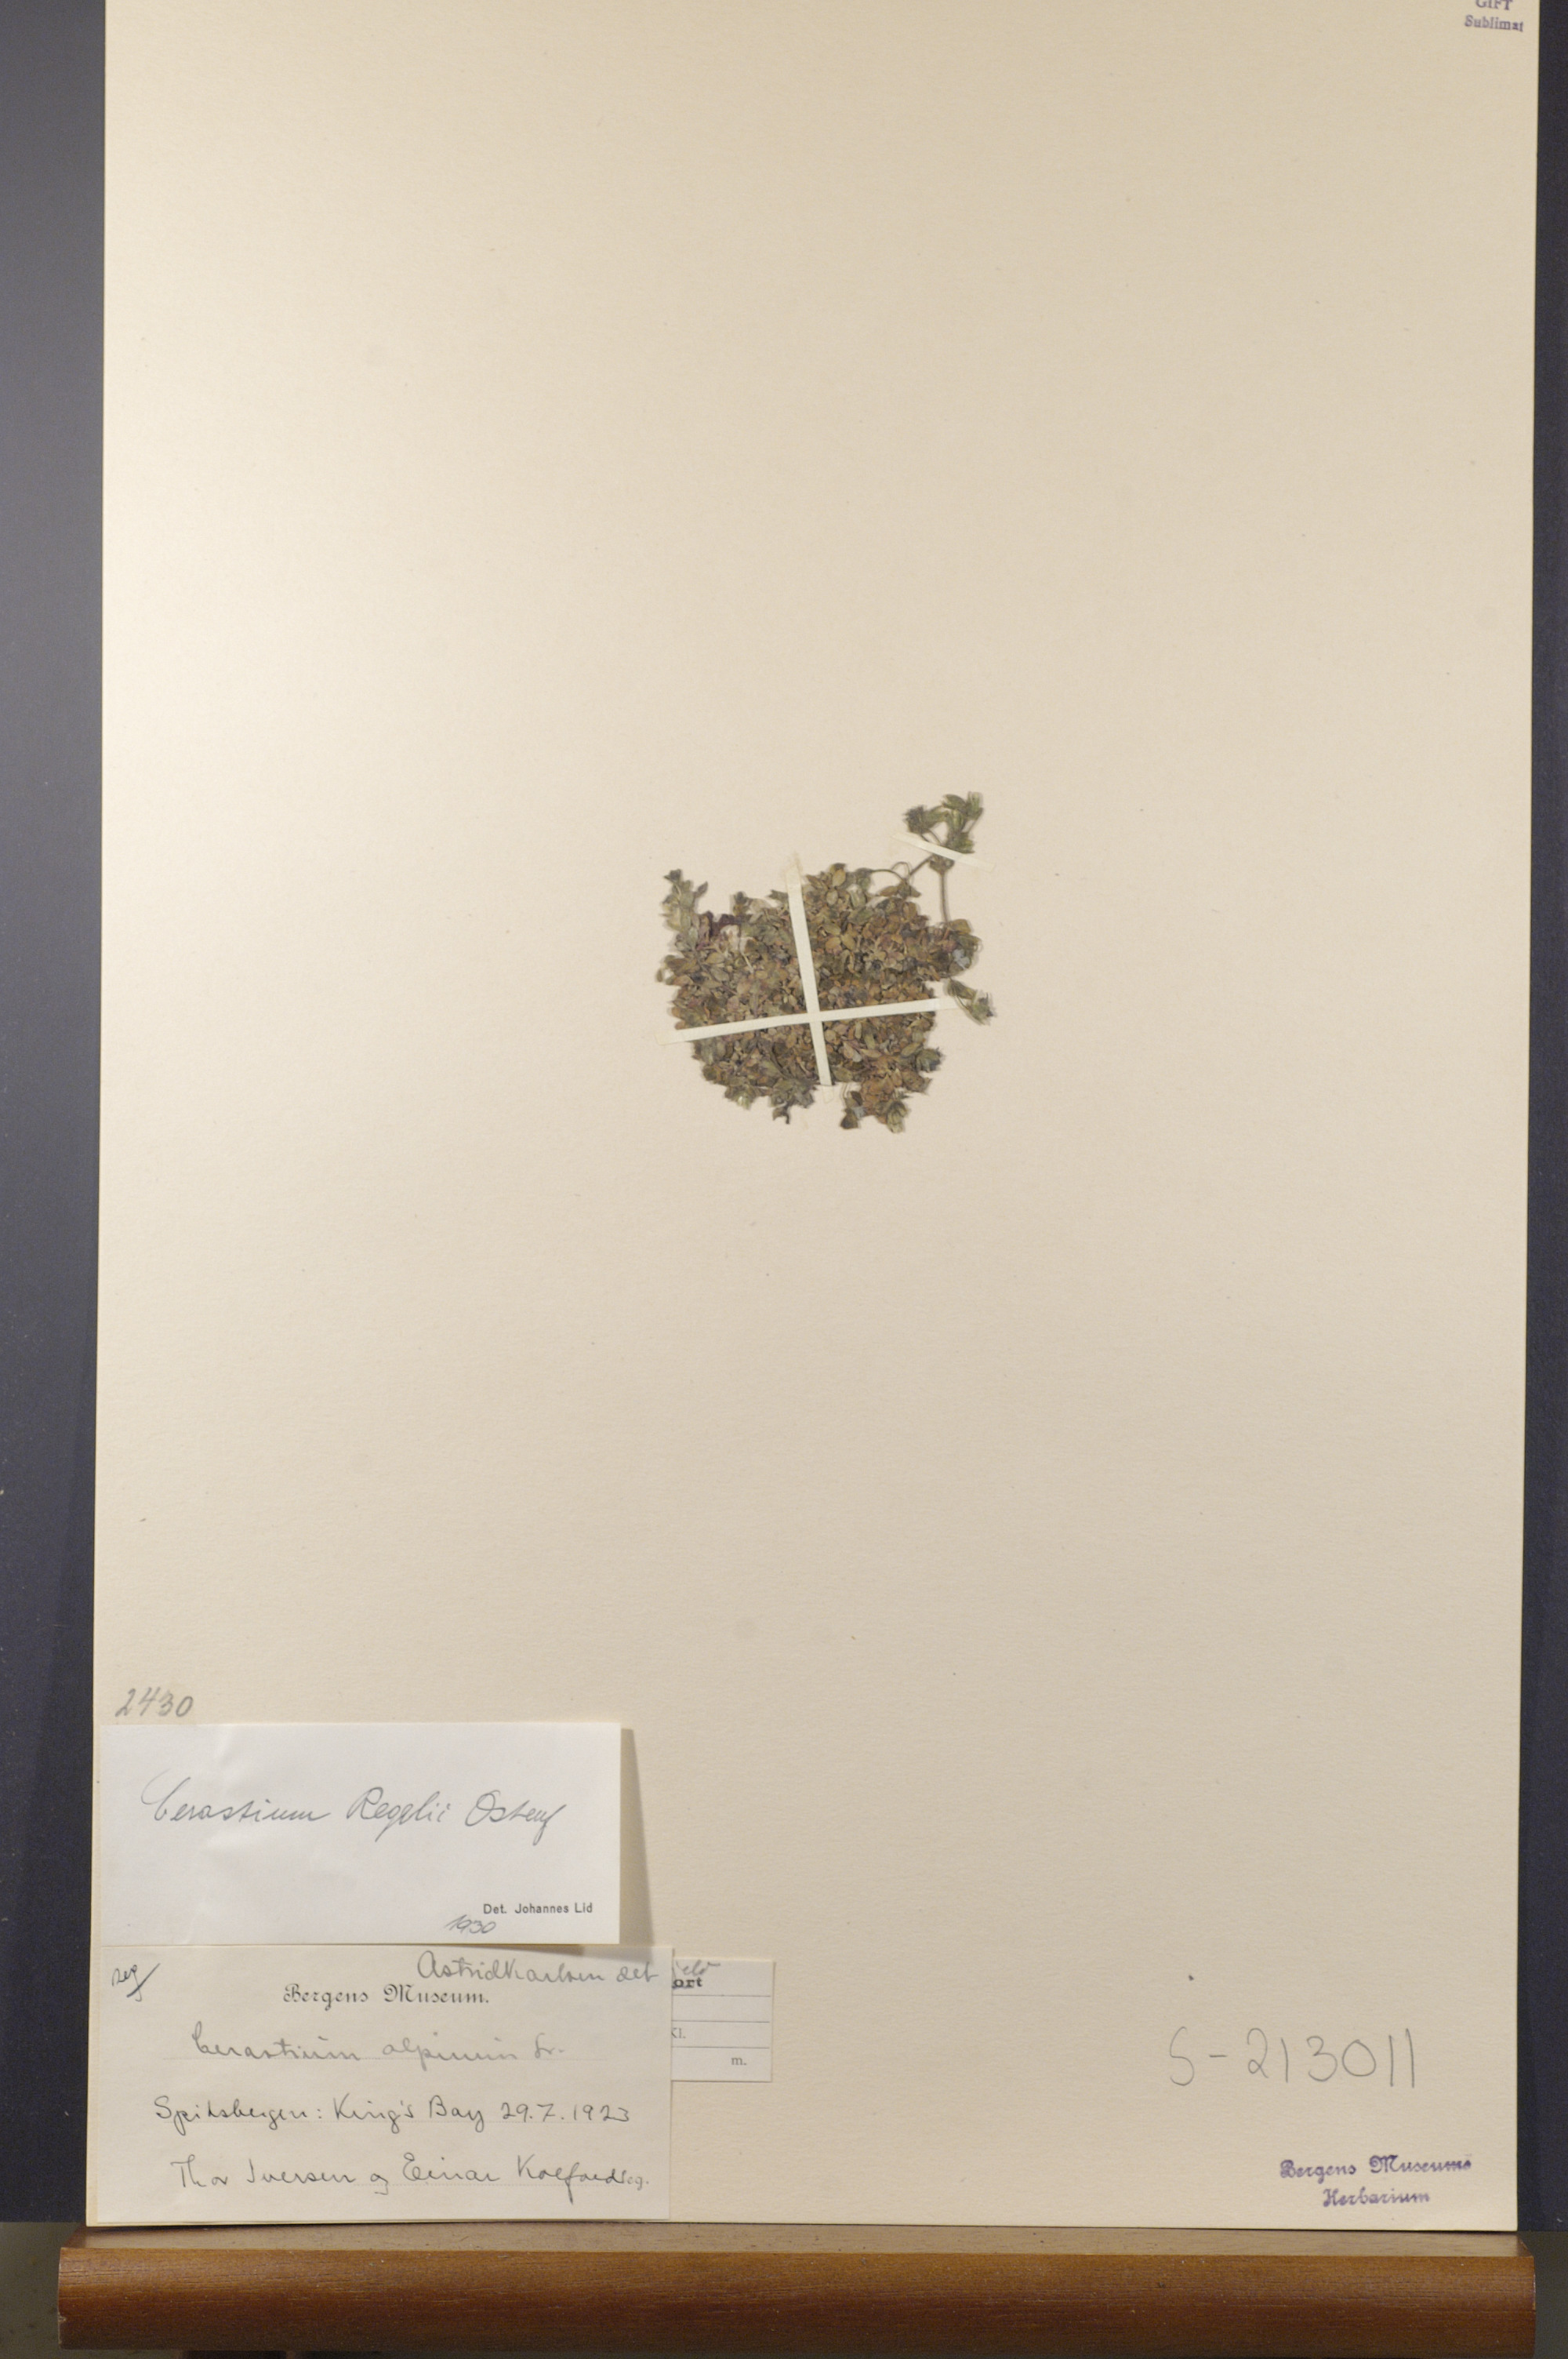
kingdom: Plantae
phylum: Tracheophyta
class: Magnoliopsida
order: Caryophyllales
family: Caryophyllaceae
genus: Cerastium
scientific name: Cerastium regelii
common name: Regel's chickweed
